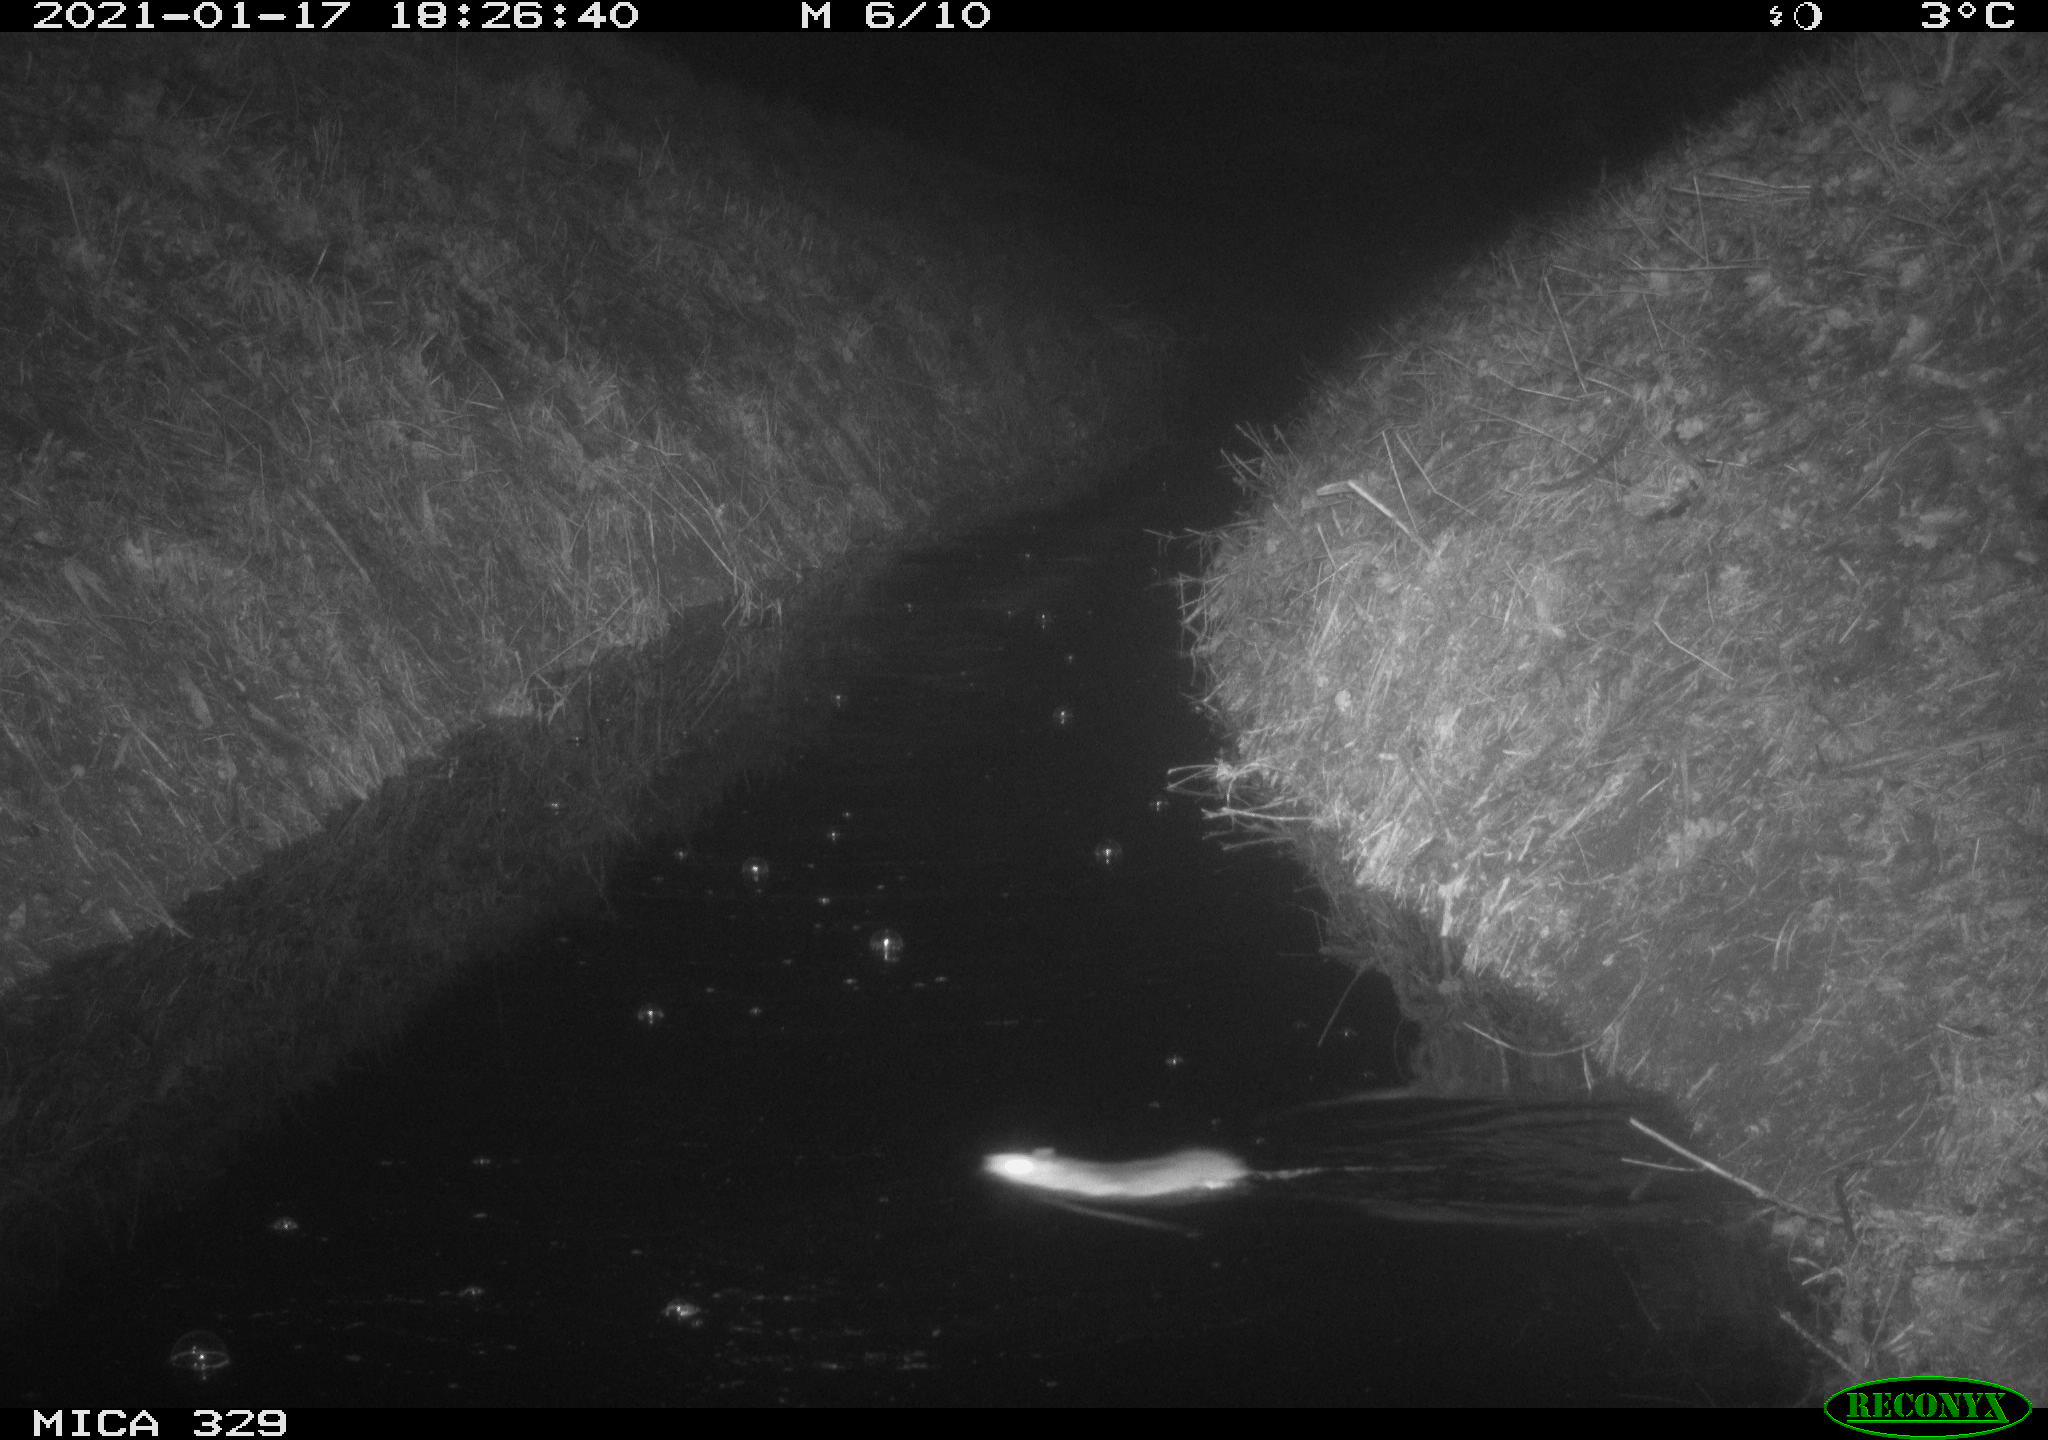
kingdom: Animalia
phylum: Chordata
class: Mammalia
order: Rodentia
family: Muridae
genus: Rattus
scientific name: Rattus norvegicus
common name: Brown rat
